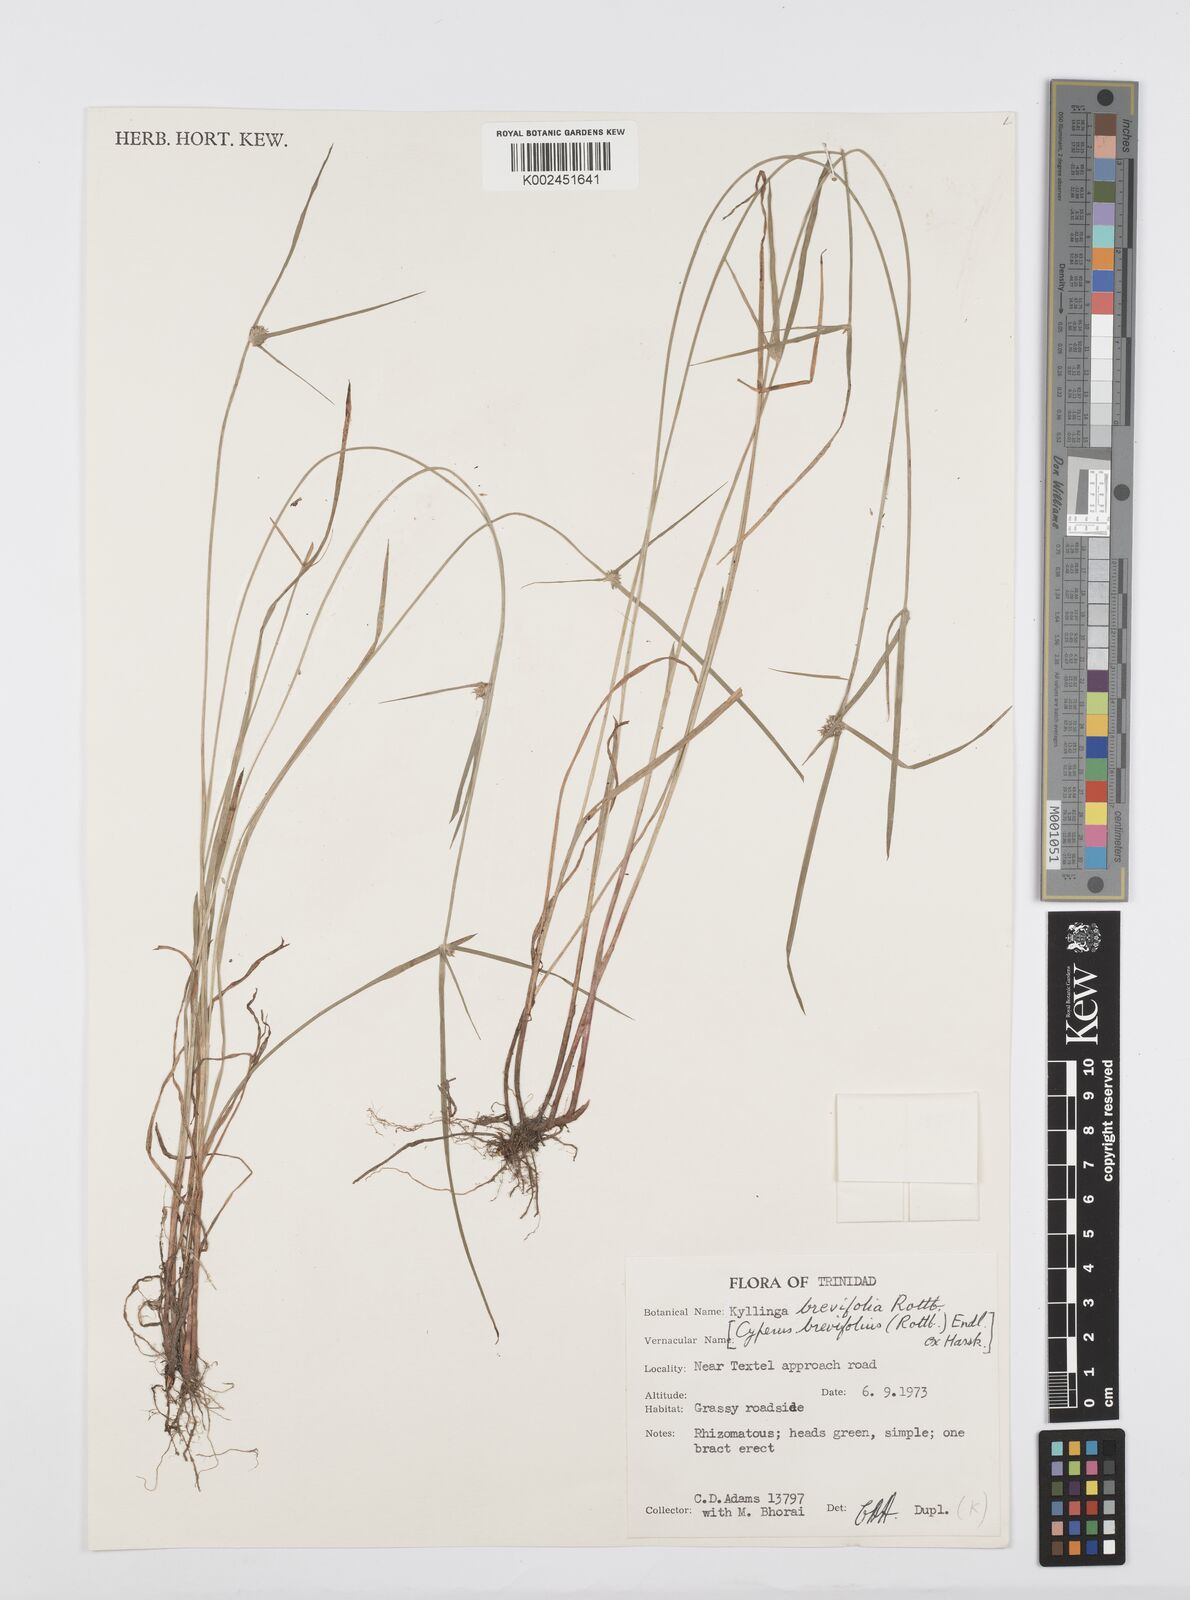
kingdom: Plantae
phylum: Tracheophyta
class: Liliopsida
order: Poales
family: Cyperaceae
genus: Cyperus
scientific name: Cyperus brevifolius
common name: Globe kyllinga
